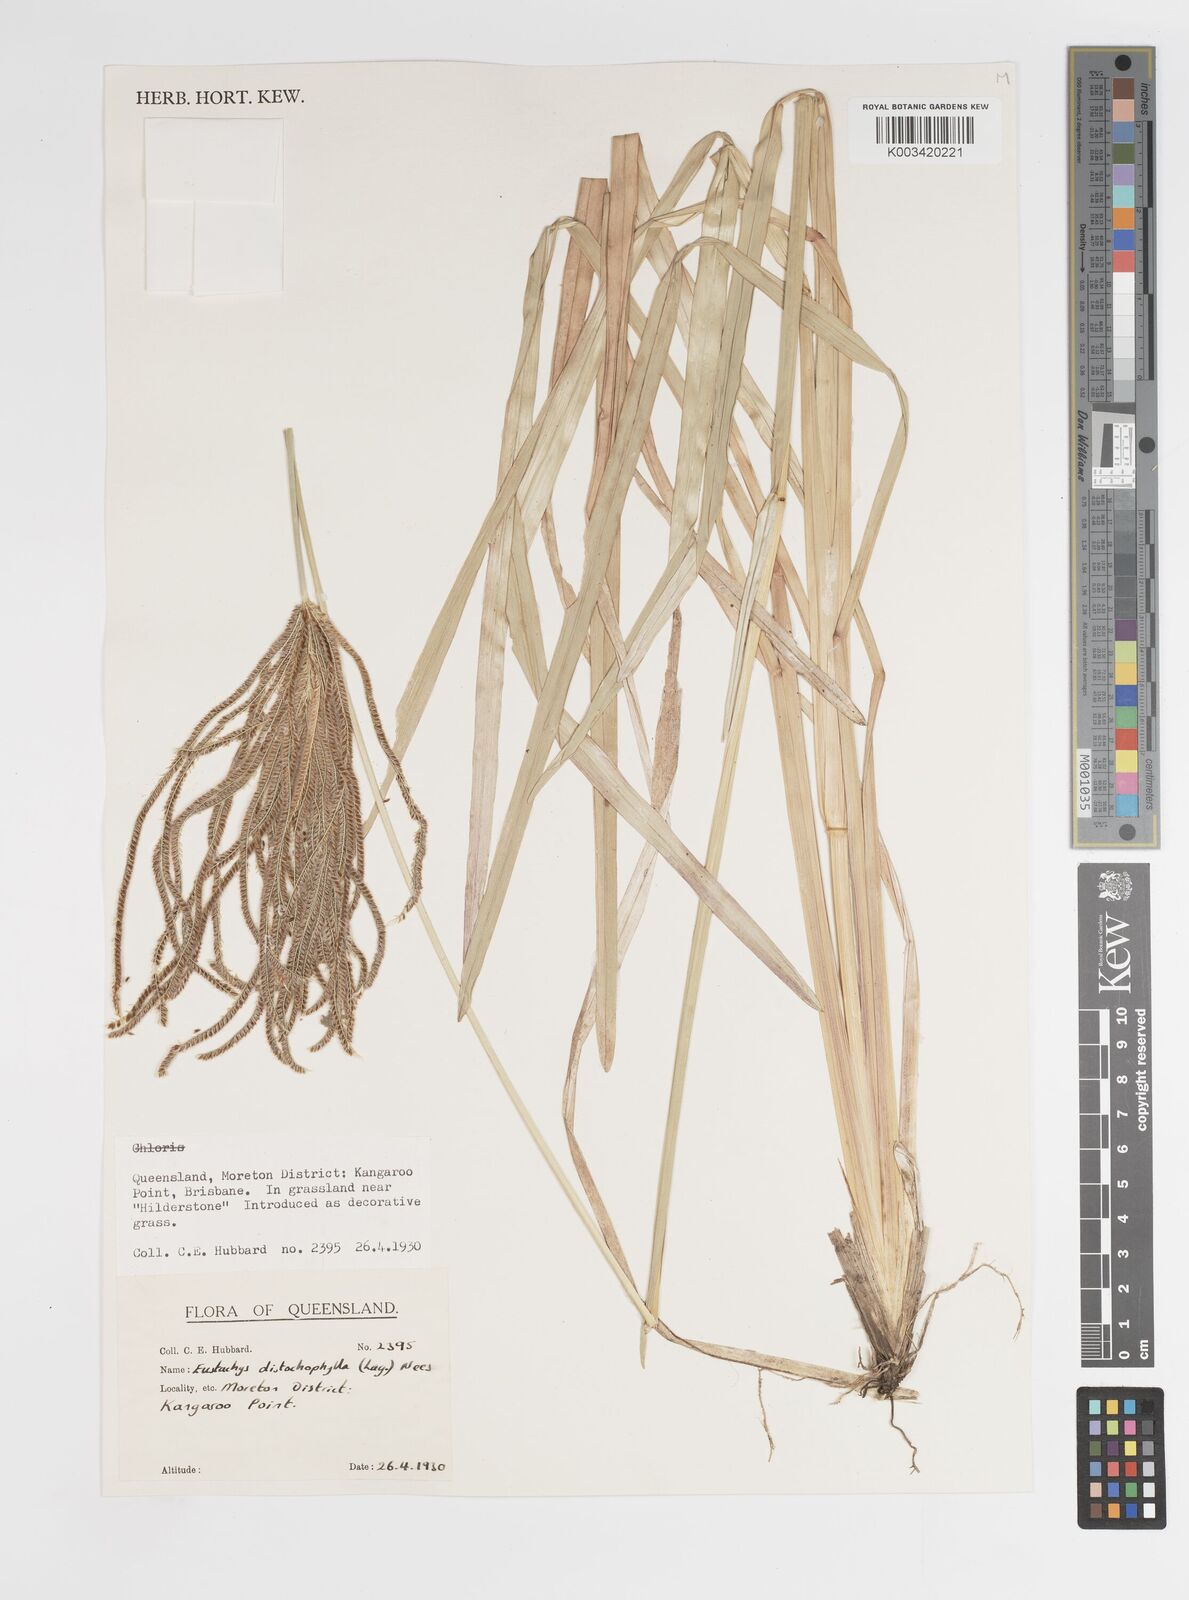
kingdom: Plantae
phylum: Tracheophyta
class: Liliopsida
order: Poales
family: Poaceae
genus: Eustachys
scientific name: Eustachys distichophylla
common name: Weeping fingergrass
